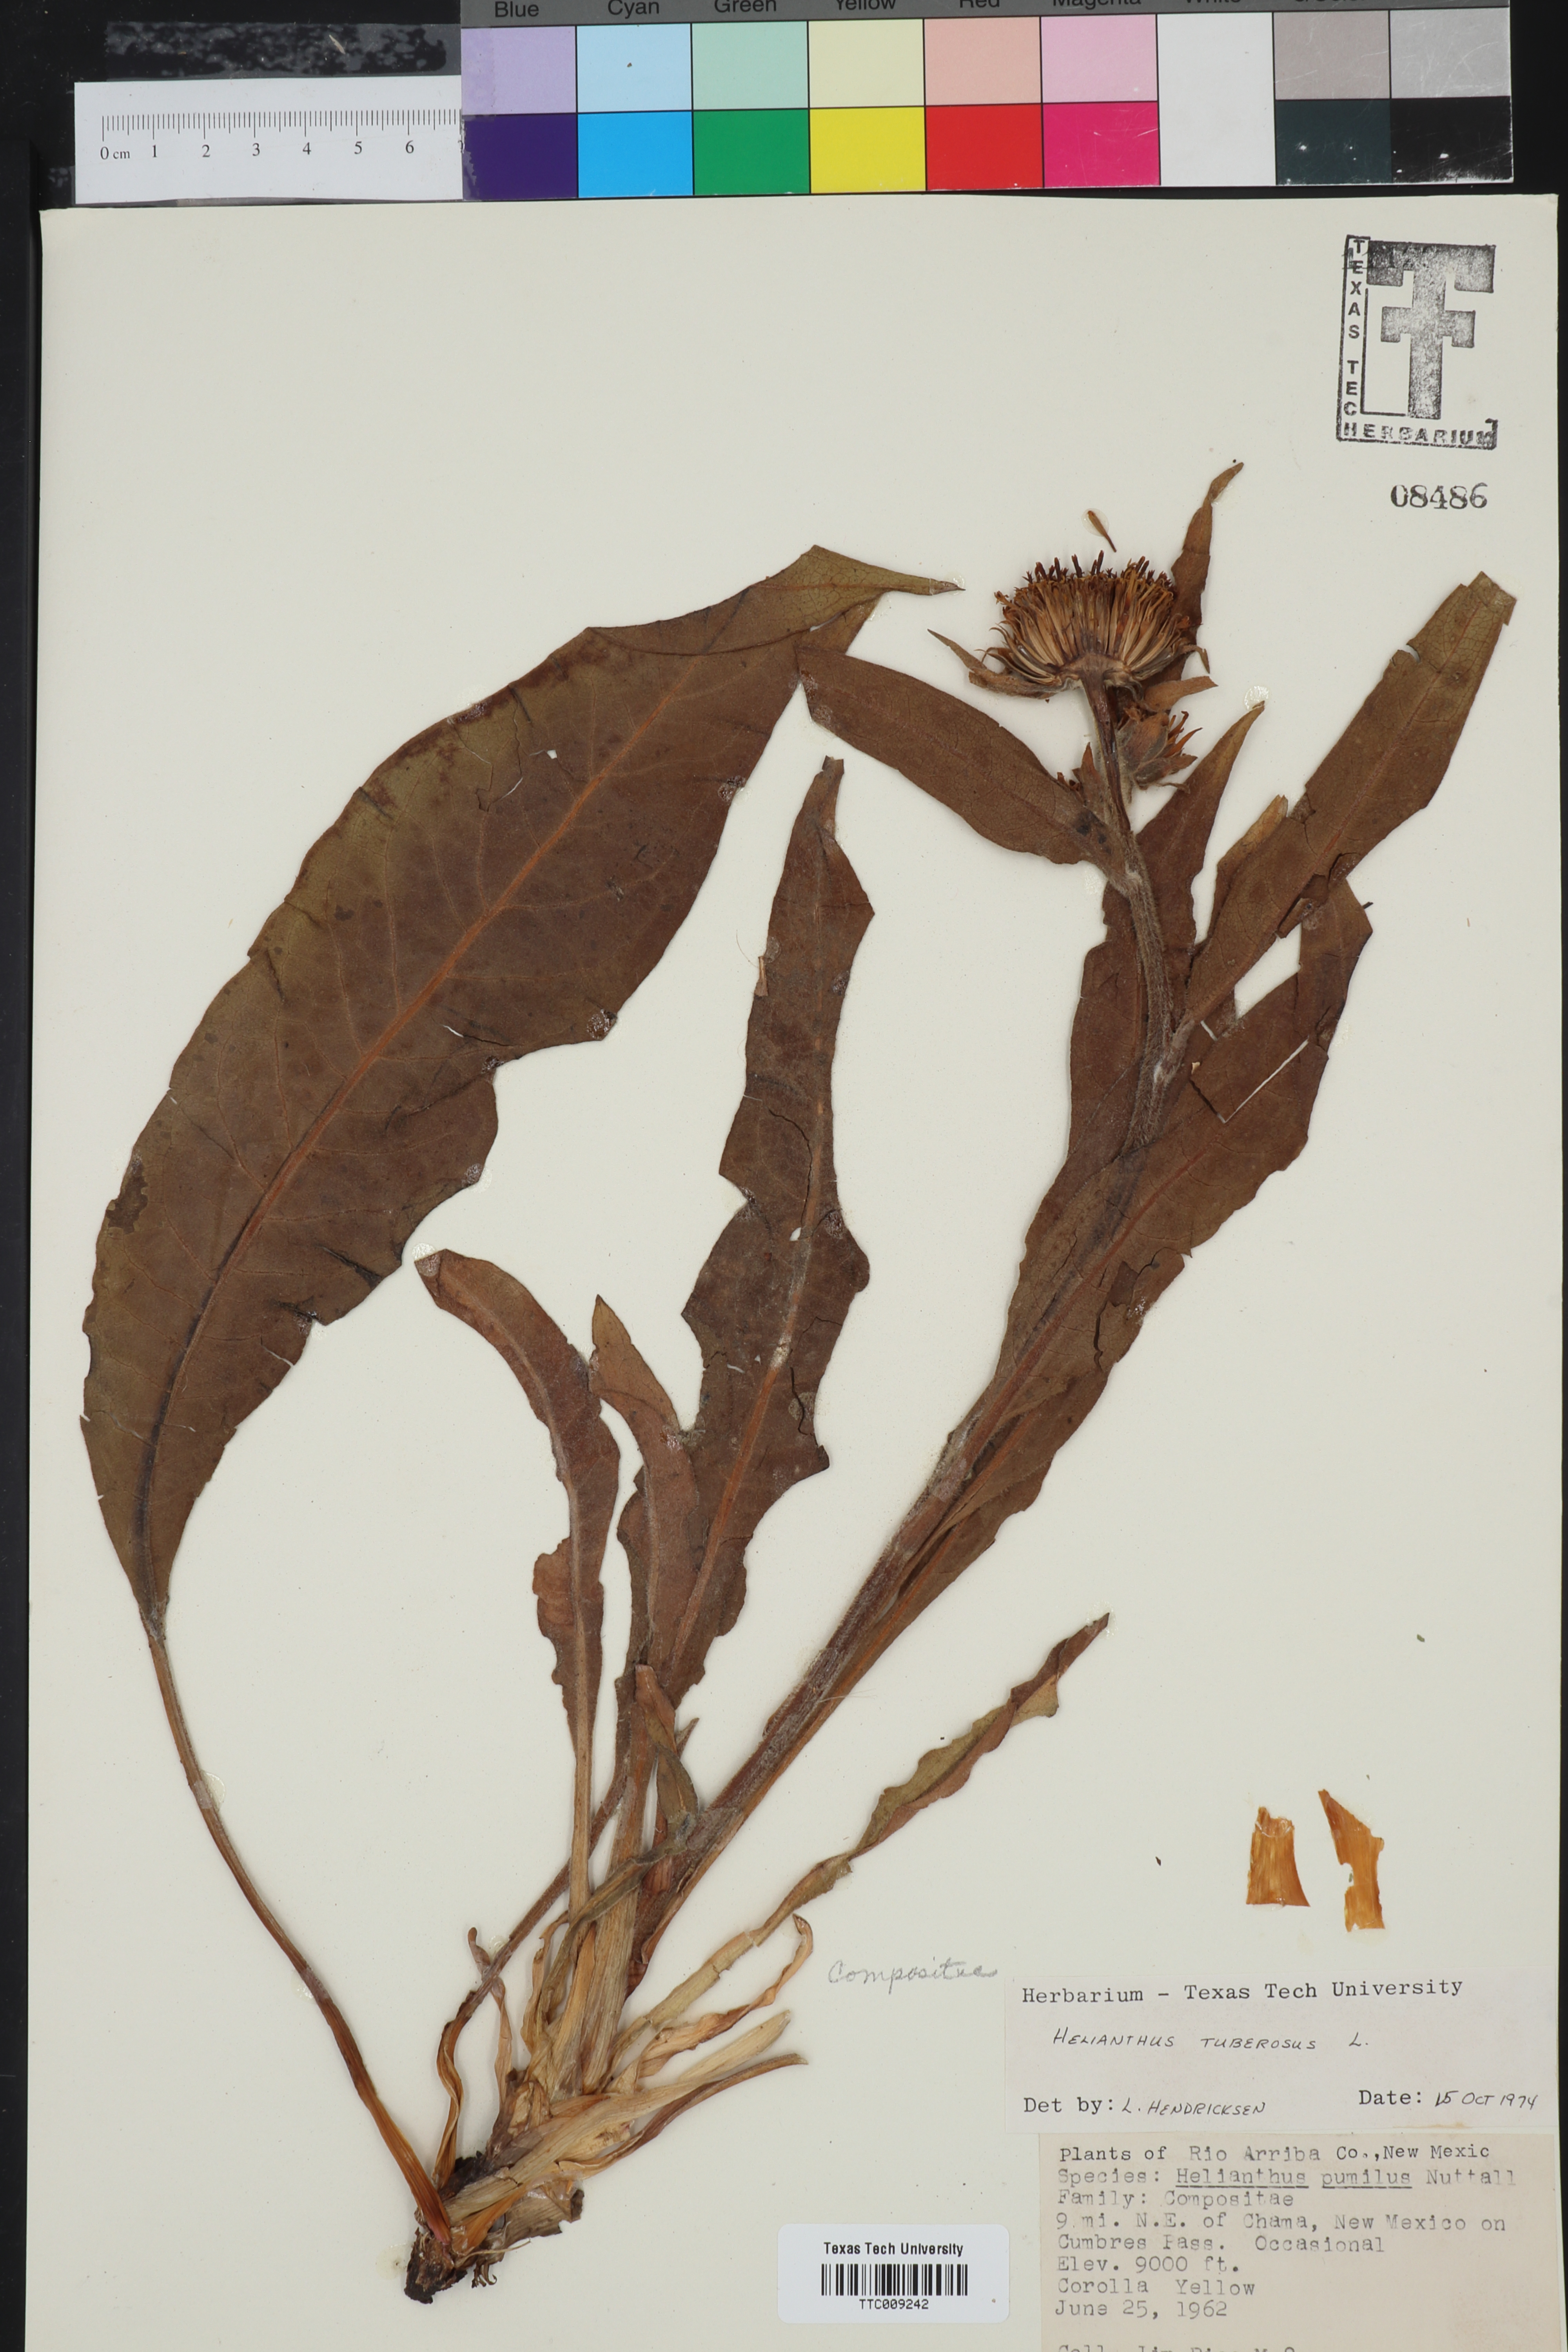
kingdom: Plantae
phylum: Tracheophyta
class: Magnoliopsida
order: Asterales
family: Asteraceae
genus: Helianthus
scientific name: Helianthus tuberosus
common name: Jerusalem artichoke
